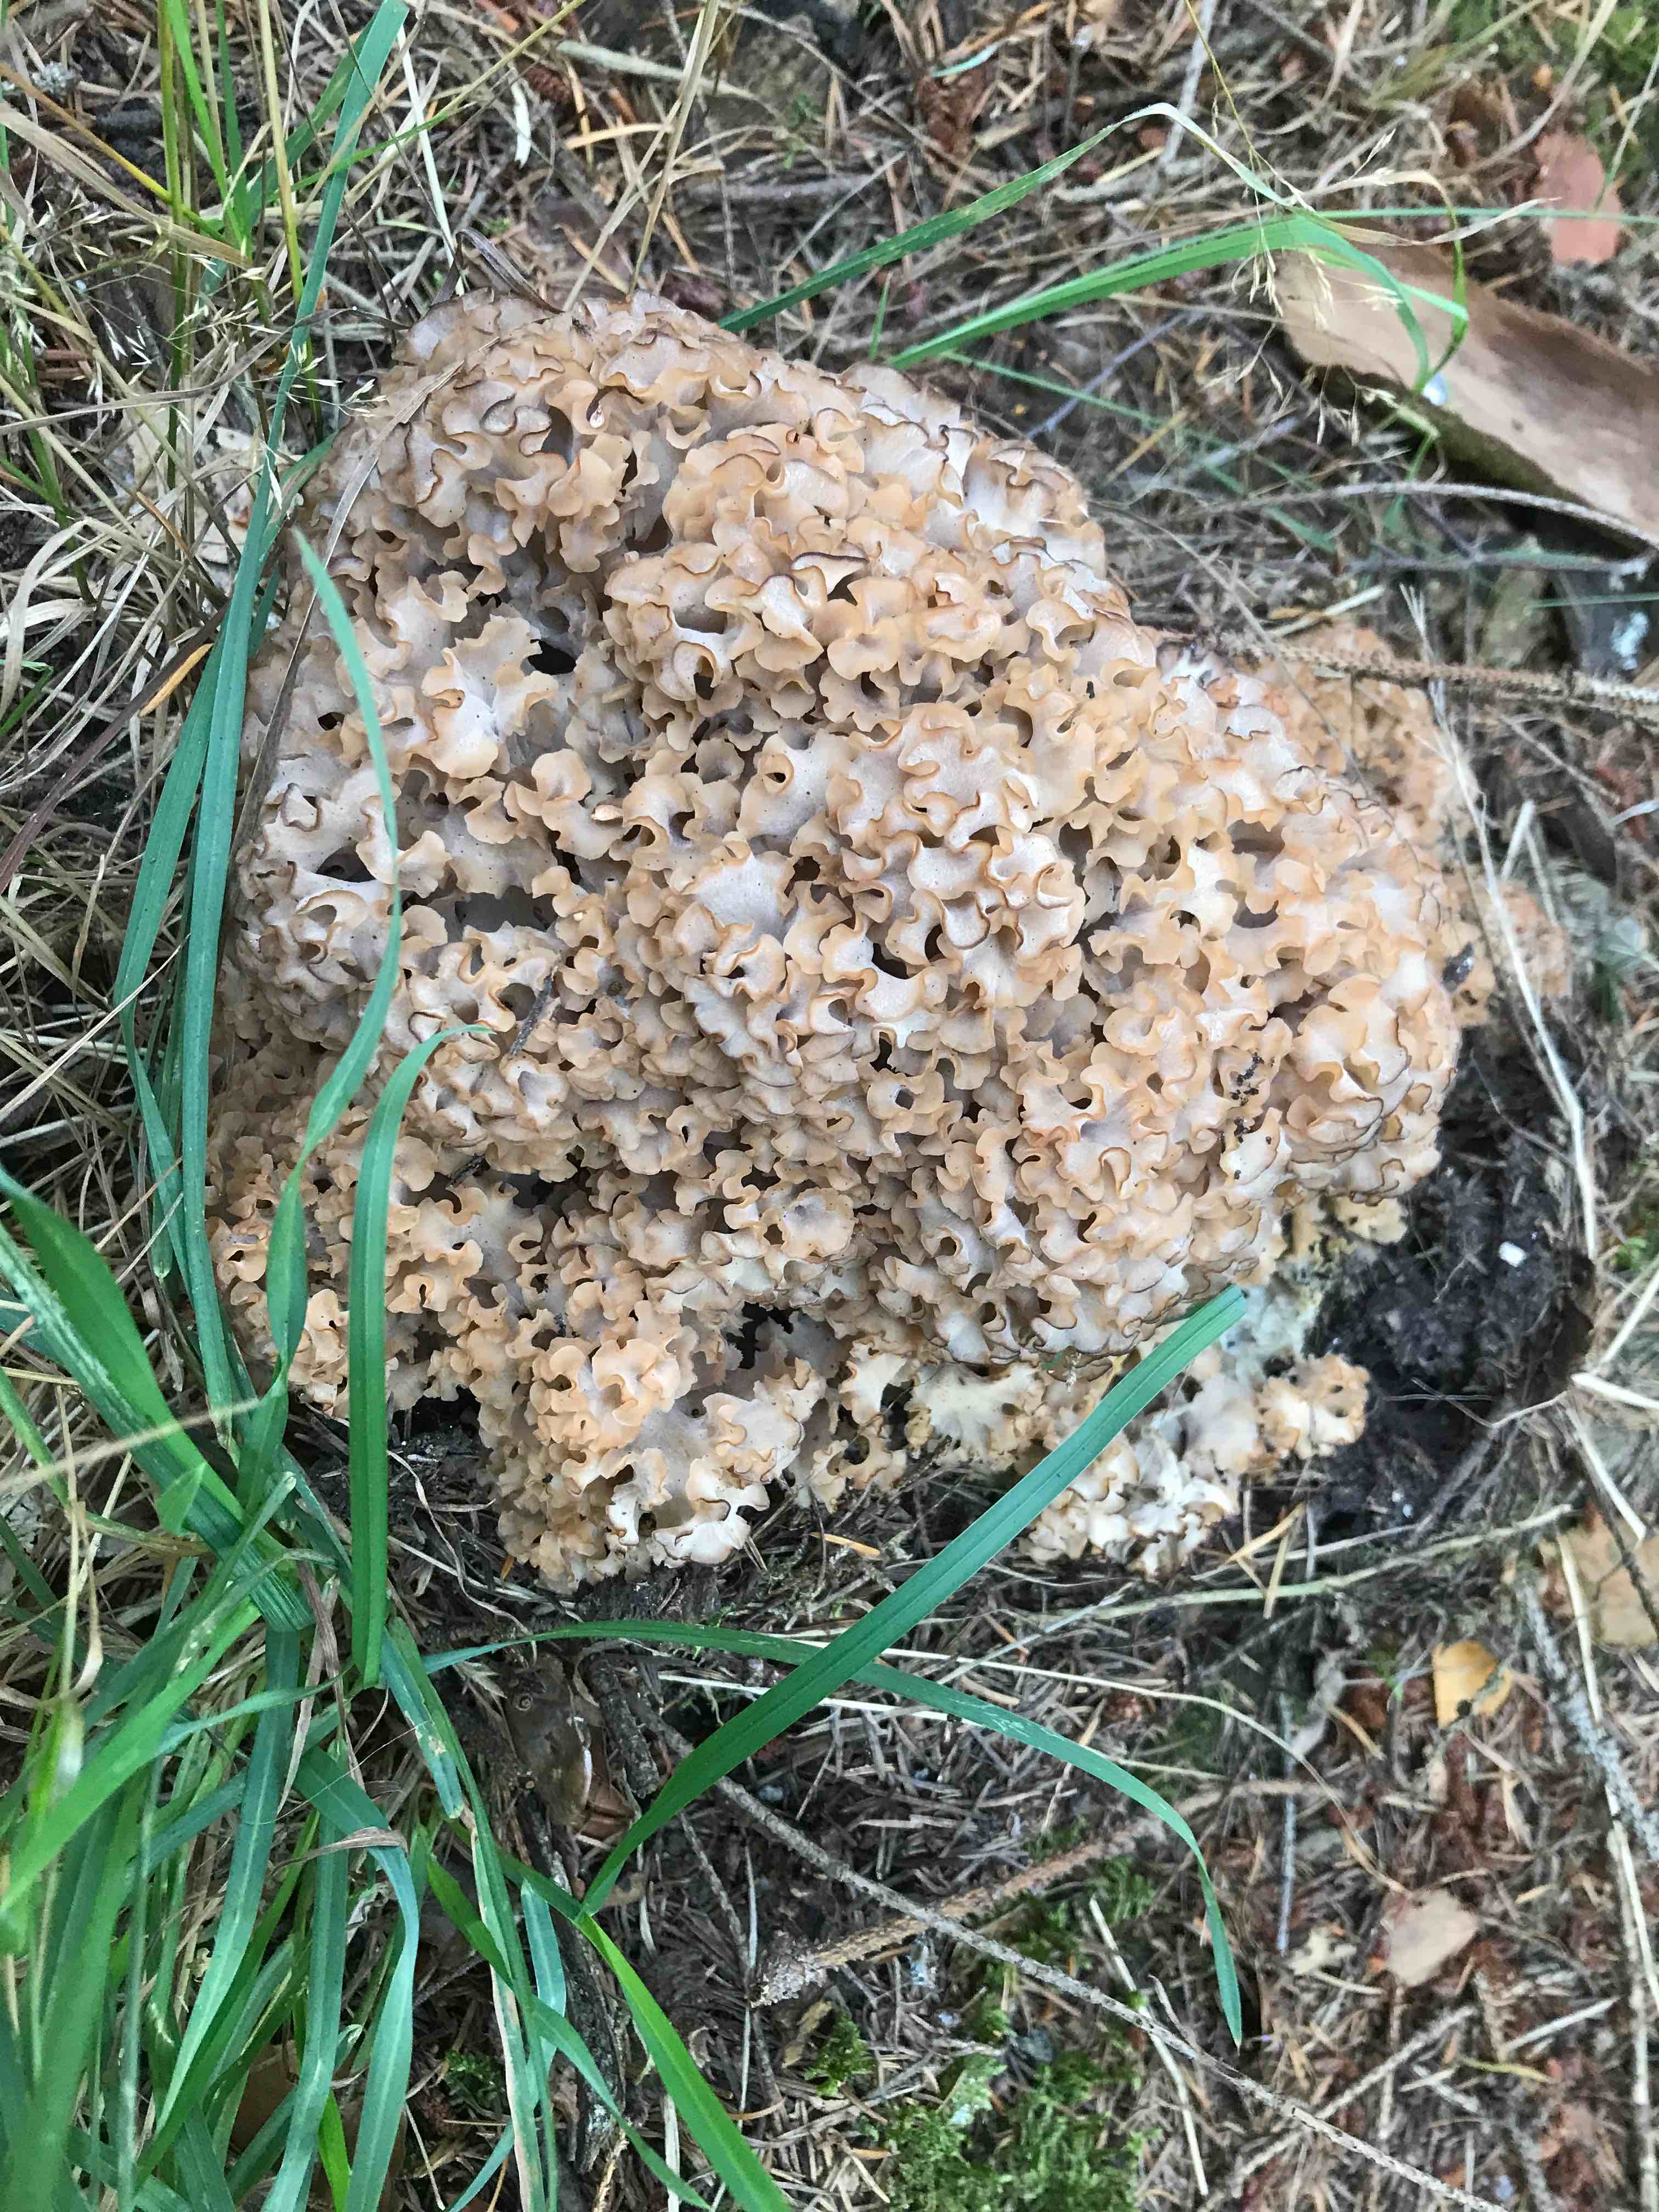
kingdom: Fungi
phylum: Basidiomycota
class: Agaricomycetes
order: Polyporales
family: Sparassidaceae
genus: Sparassis
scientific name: Sparassis crispa
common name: kruset blomkålssvamp
